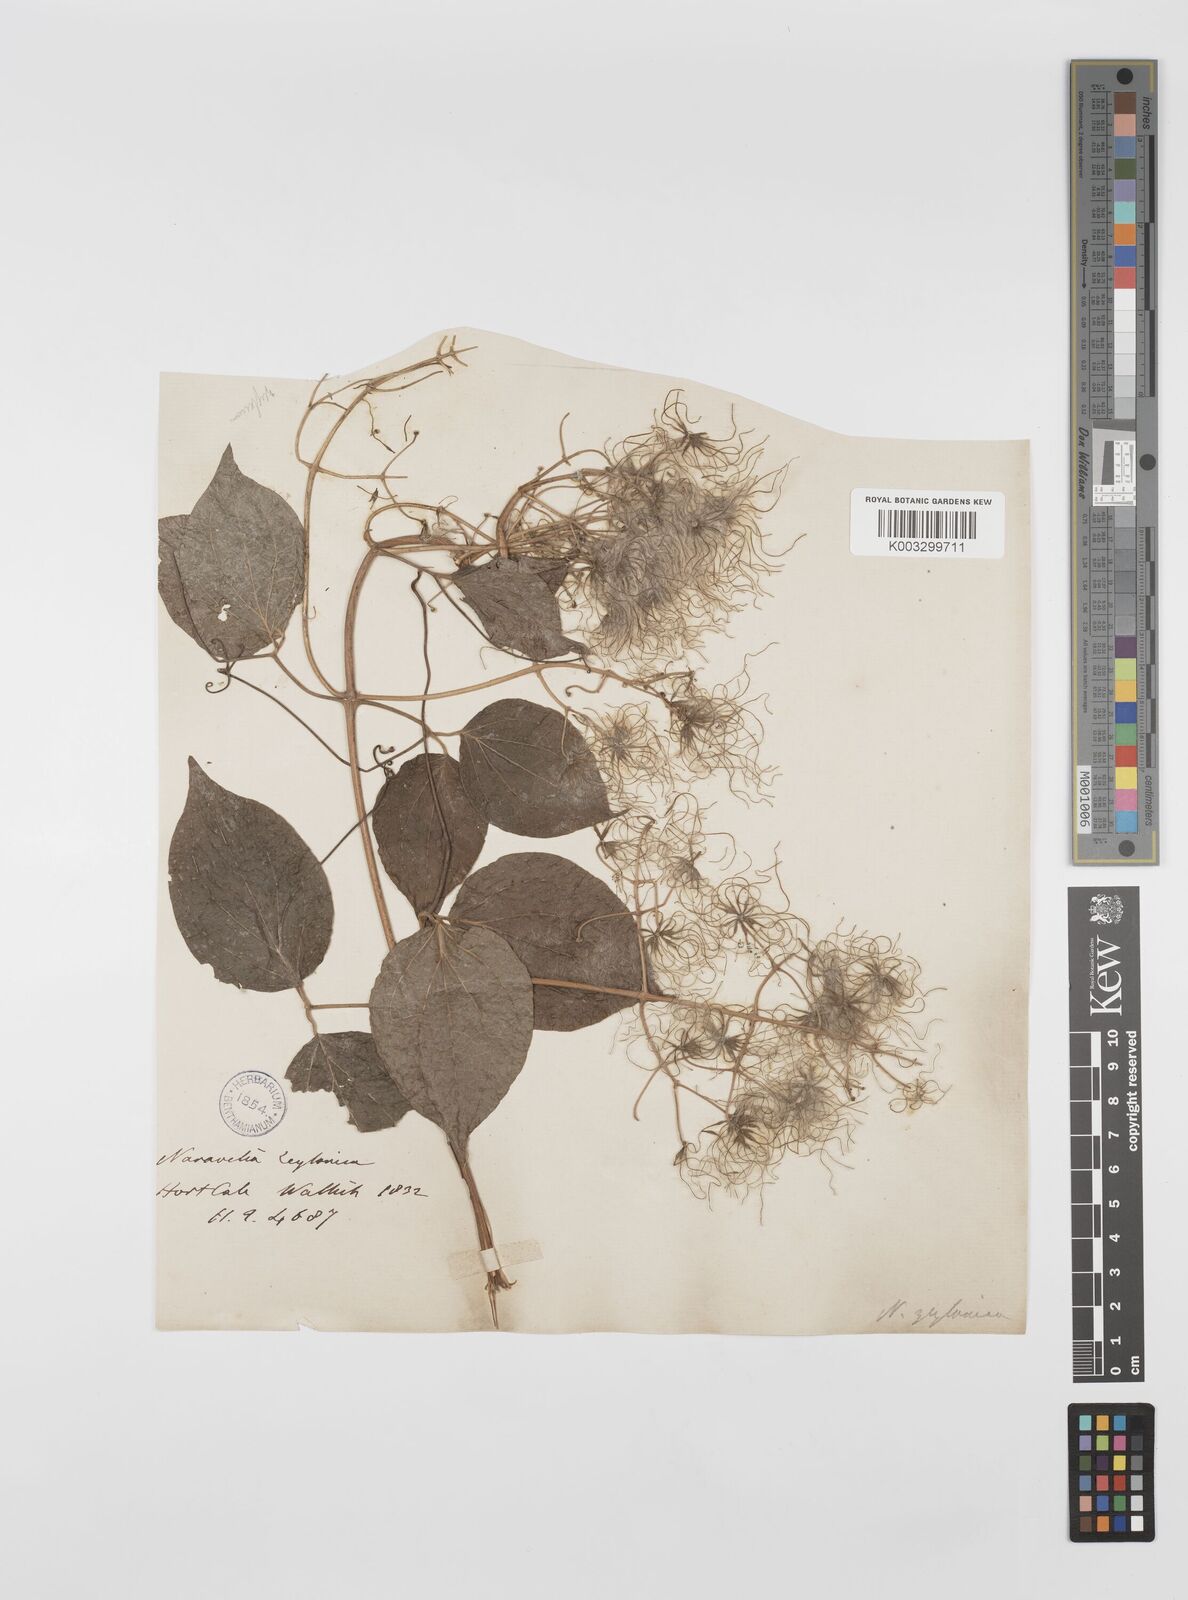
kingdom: Plantae
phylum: Tracheophyta
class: Magnoliopsida
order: Ranunculales
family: Ranunculaceae
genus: Clematis
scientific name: Clematis zeylanica
